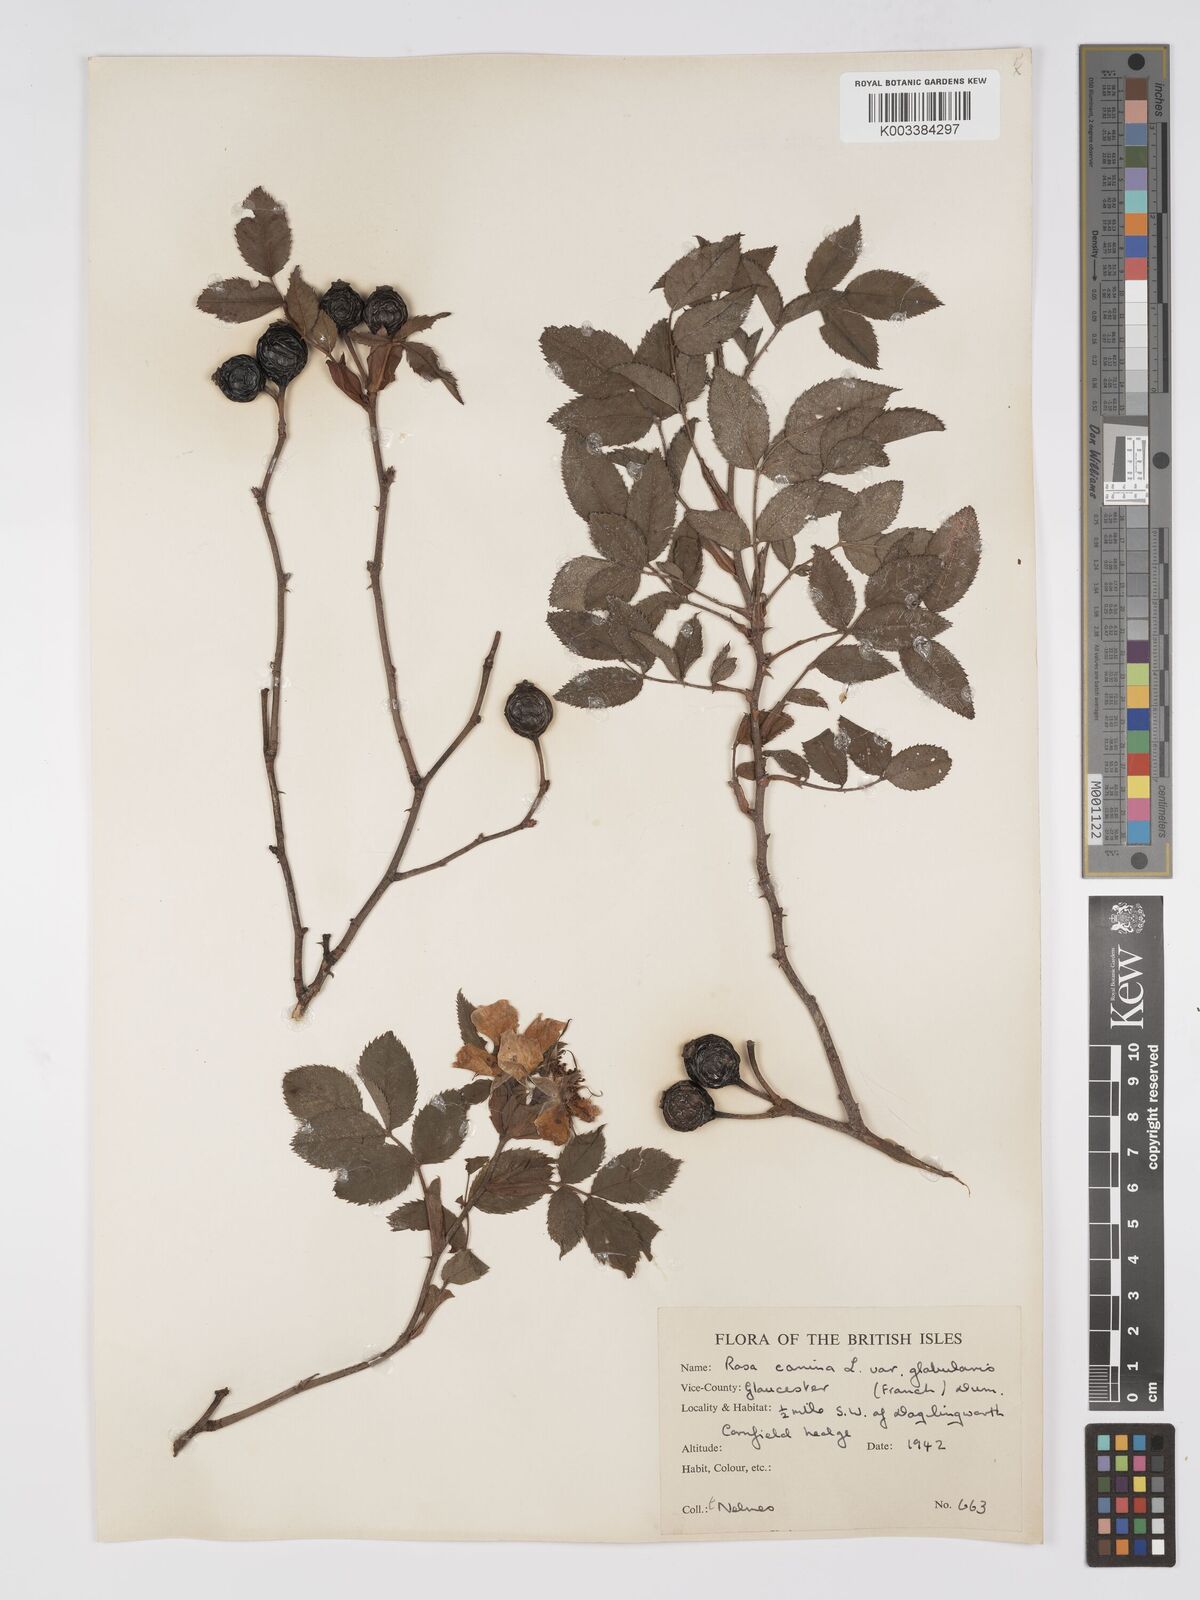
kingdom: Plantae
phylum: Tracheophyta
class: Magnoliopsida
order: Rosales
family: Rosaceae
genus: Rosa
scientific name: Rosa canina
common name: Dog rose
